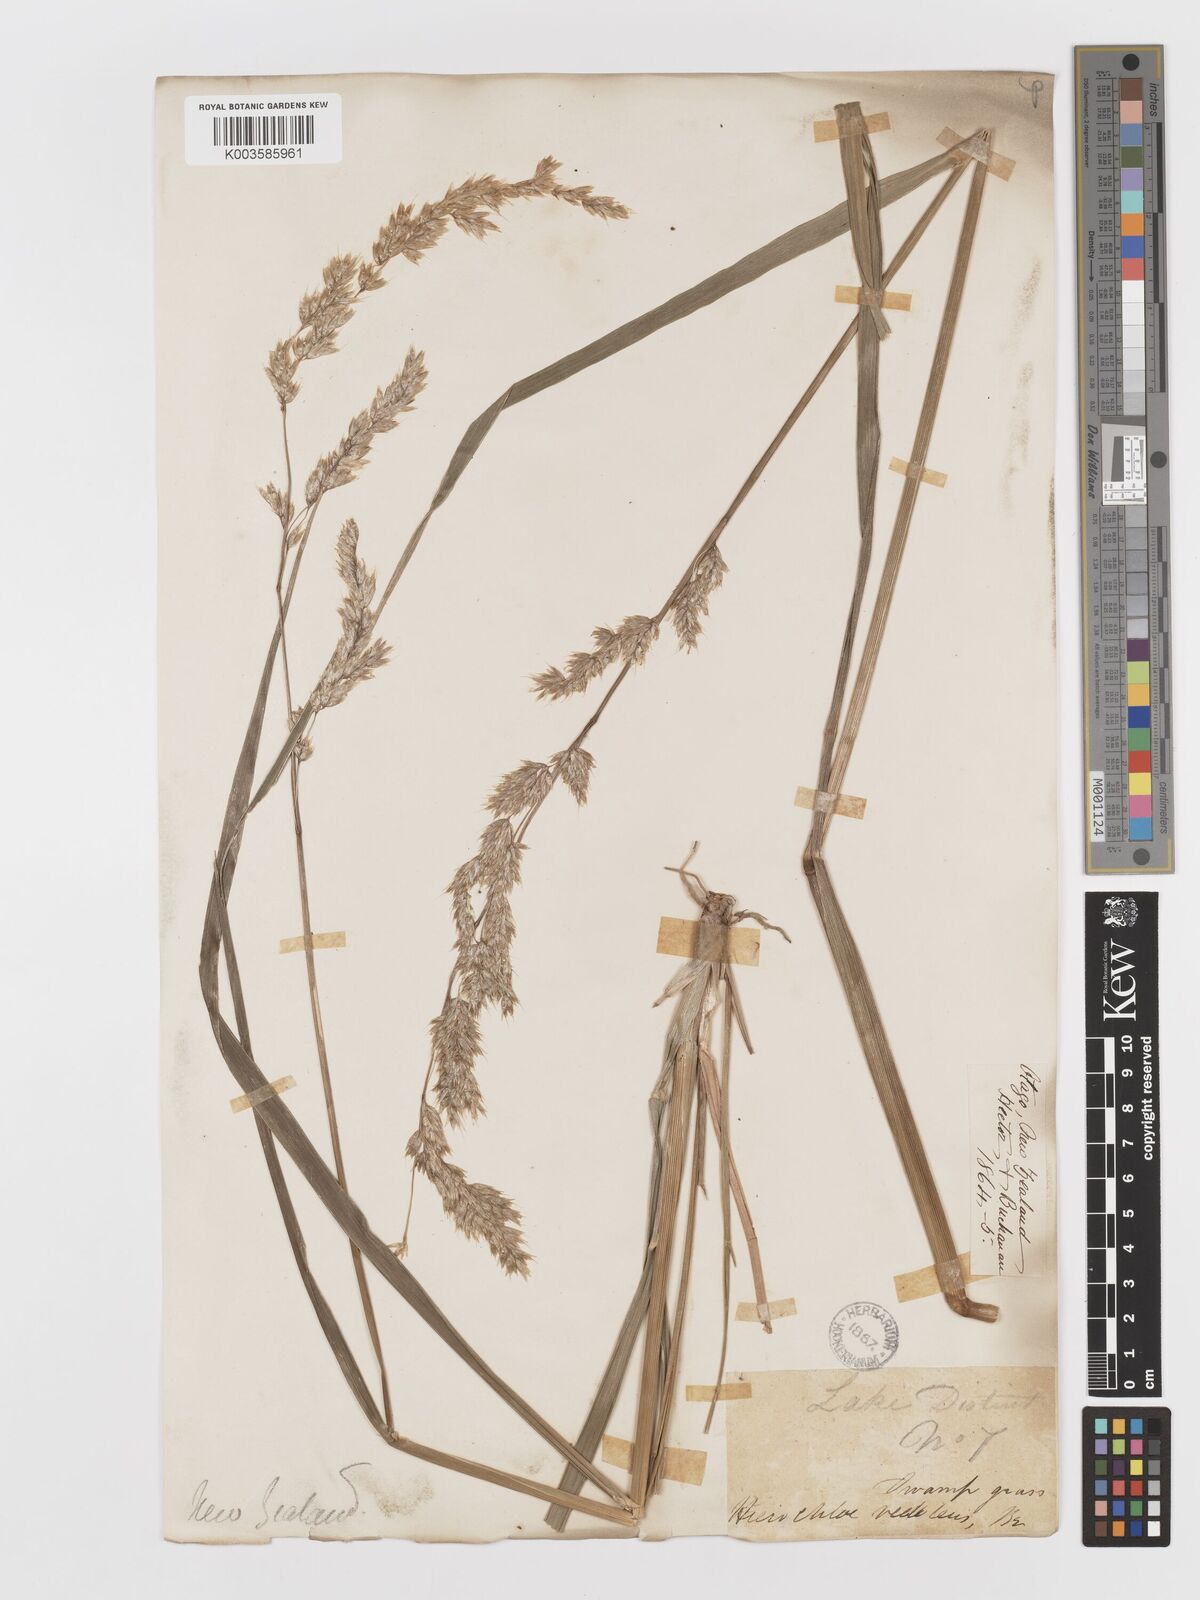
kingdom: Plantae
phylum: Tracheophyta
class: Liliopsida
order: Poales
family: Poaceae
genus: Anthoxanthum
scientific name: Anthoxanthum redolens
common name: Sweet holy grass
